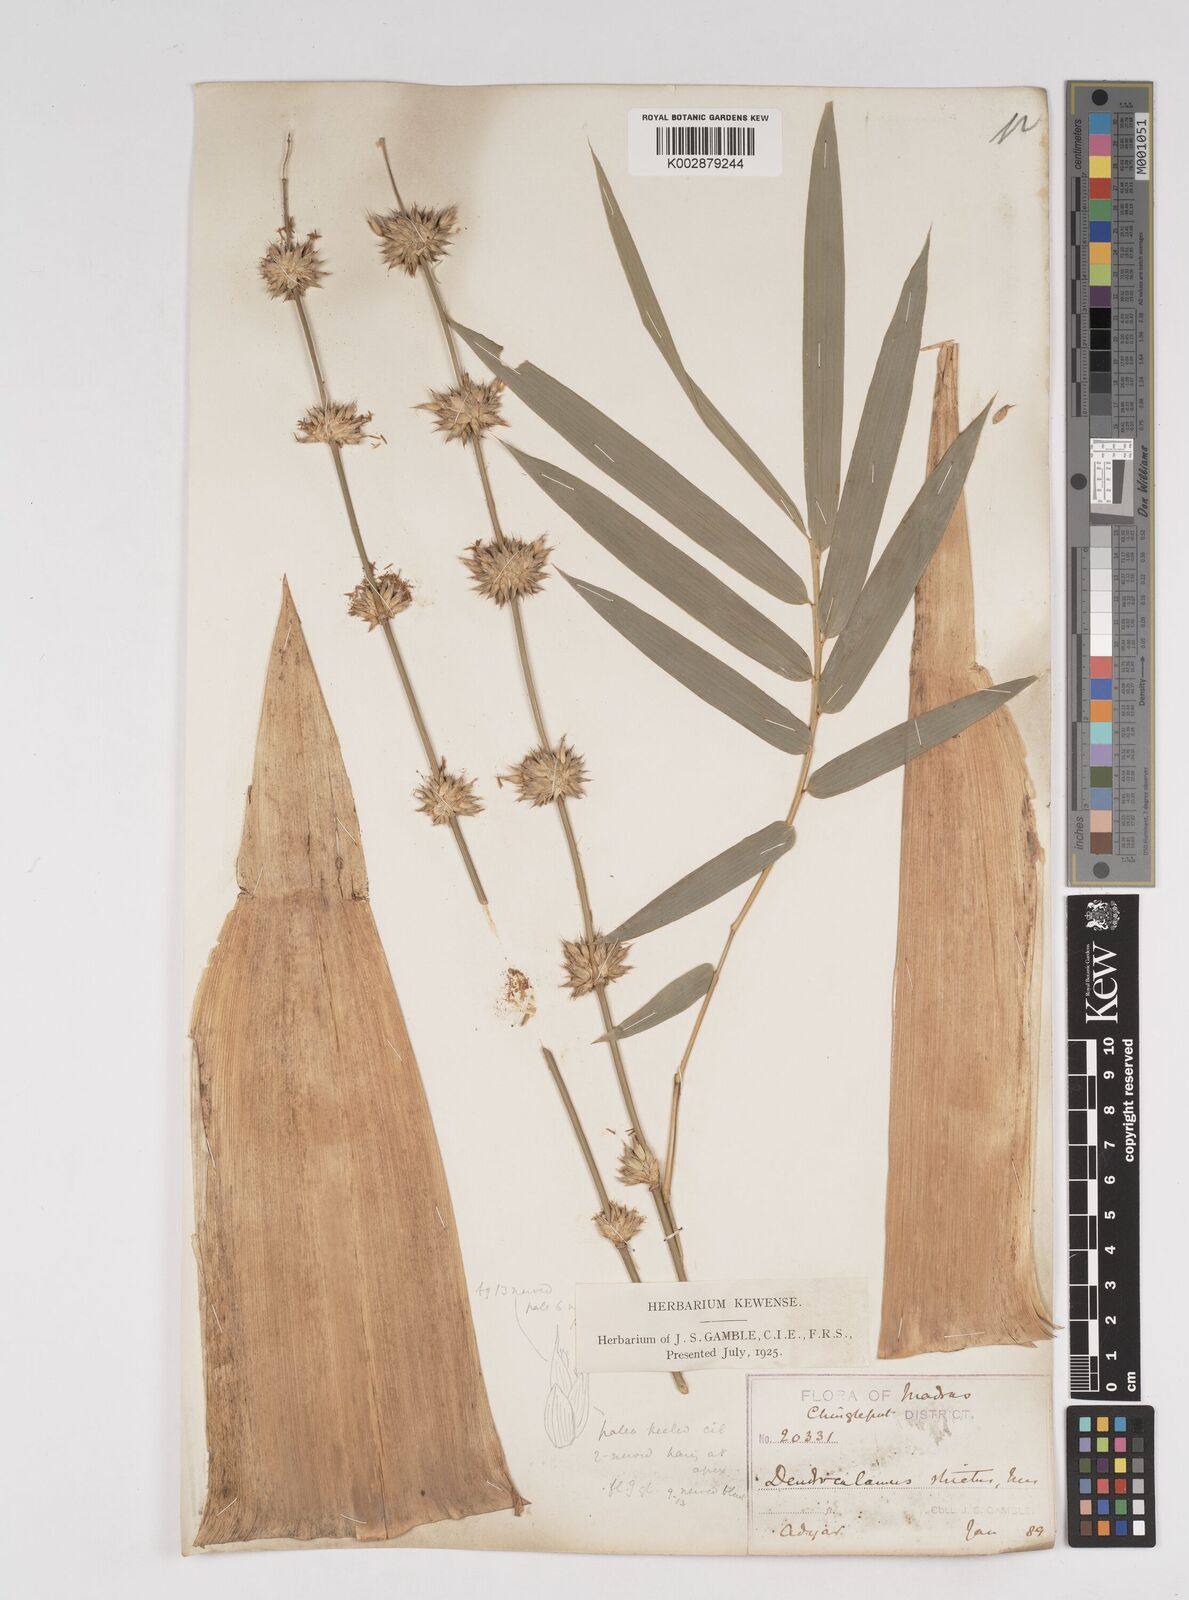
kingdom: Plantae
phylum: Tracheophyta
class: Liliopsida
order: Poales
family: Poaceae
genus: Dendrocalamus
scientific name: Dendrocalamus strictus
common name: Male bamboo
